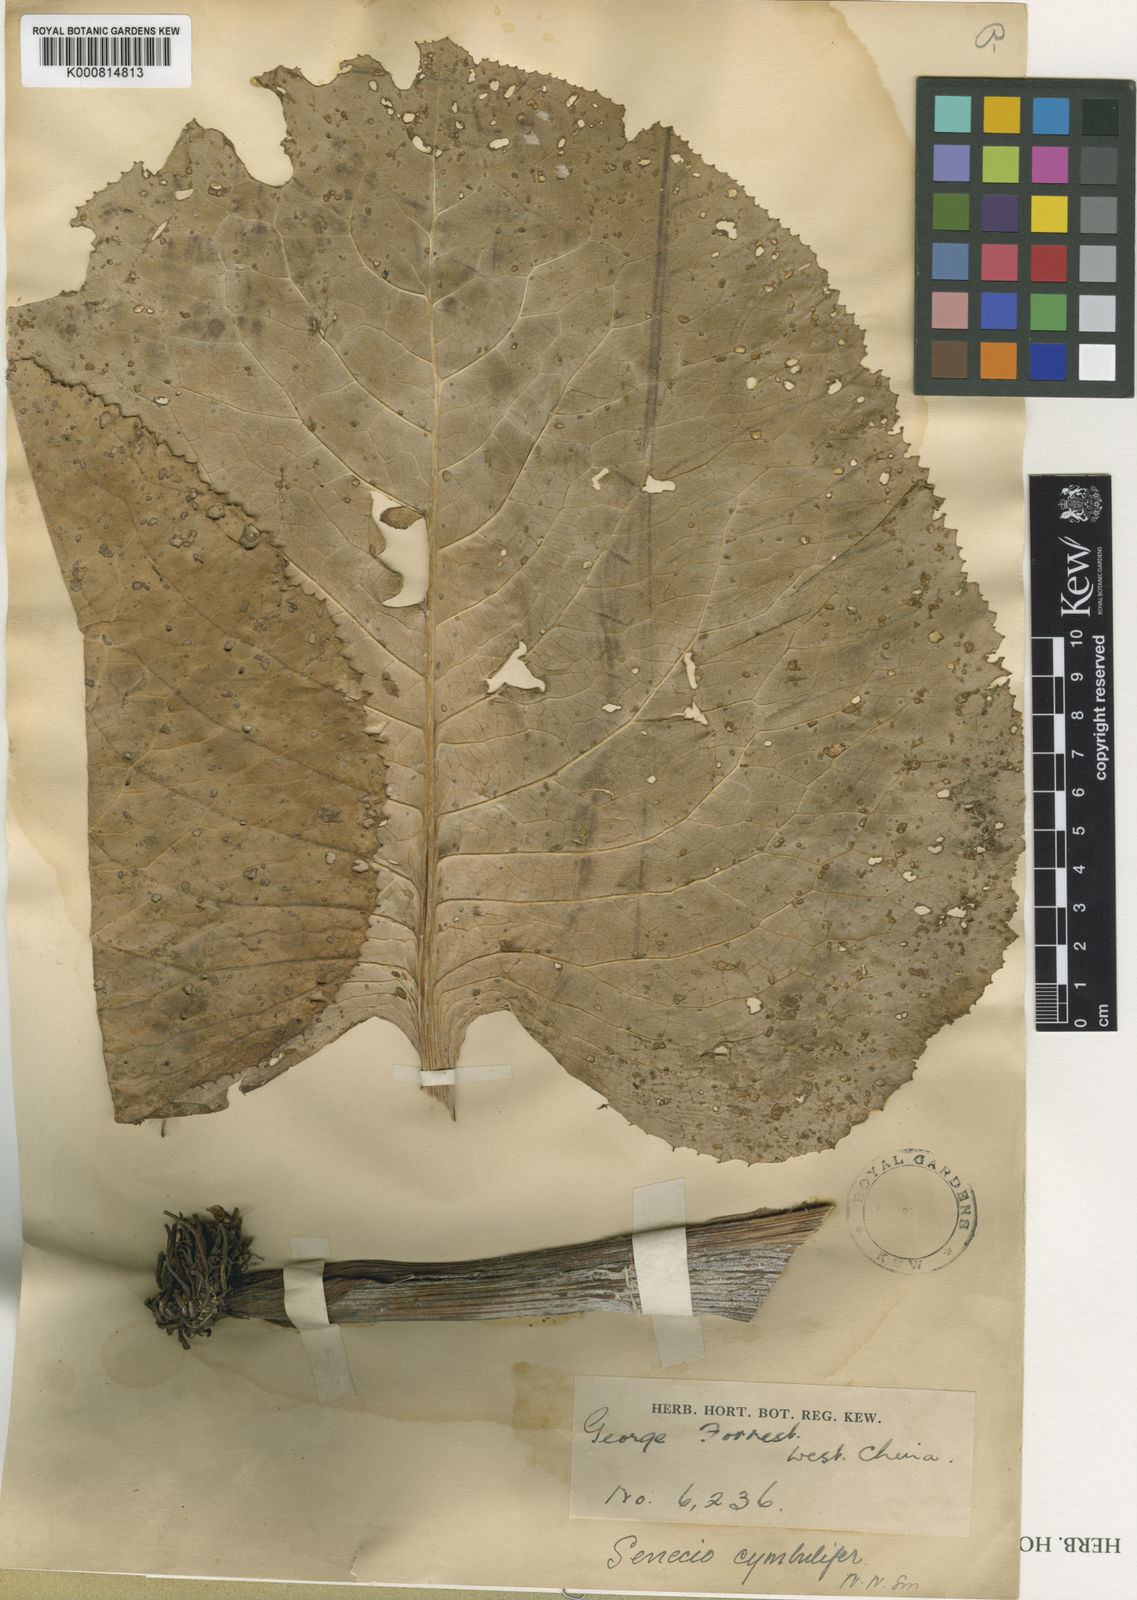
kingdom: Plantae
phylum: Tracheophyta
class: Magnoliopsida
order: Asterales
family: Asteraceae
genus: Ligularia
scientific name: Ligularia cymbulifera
